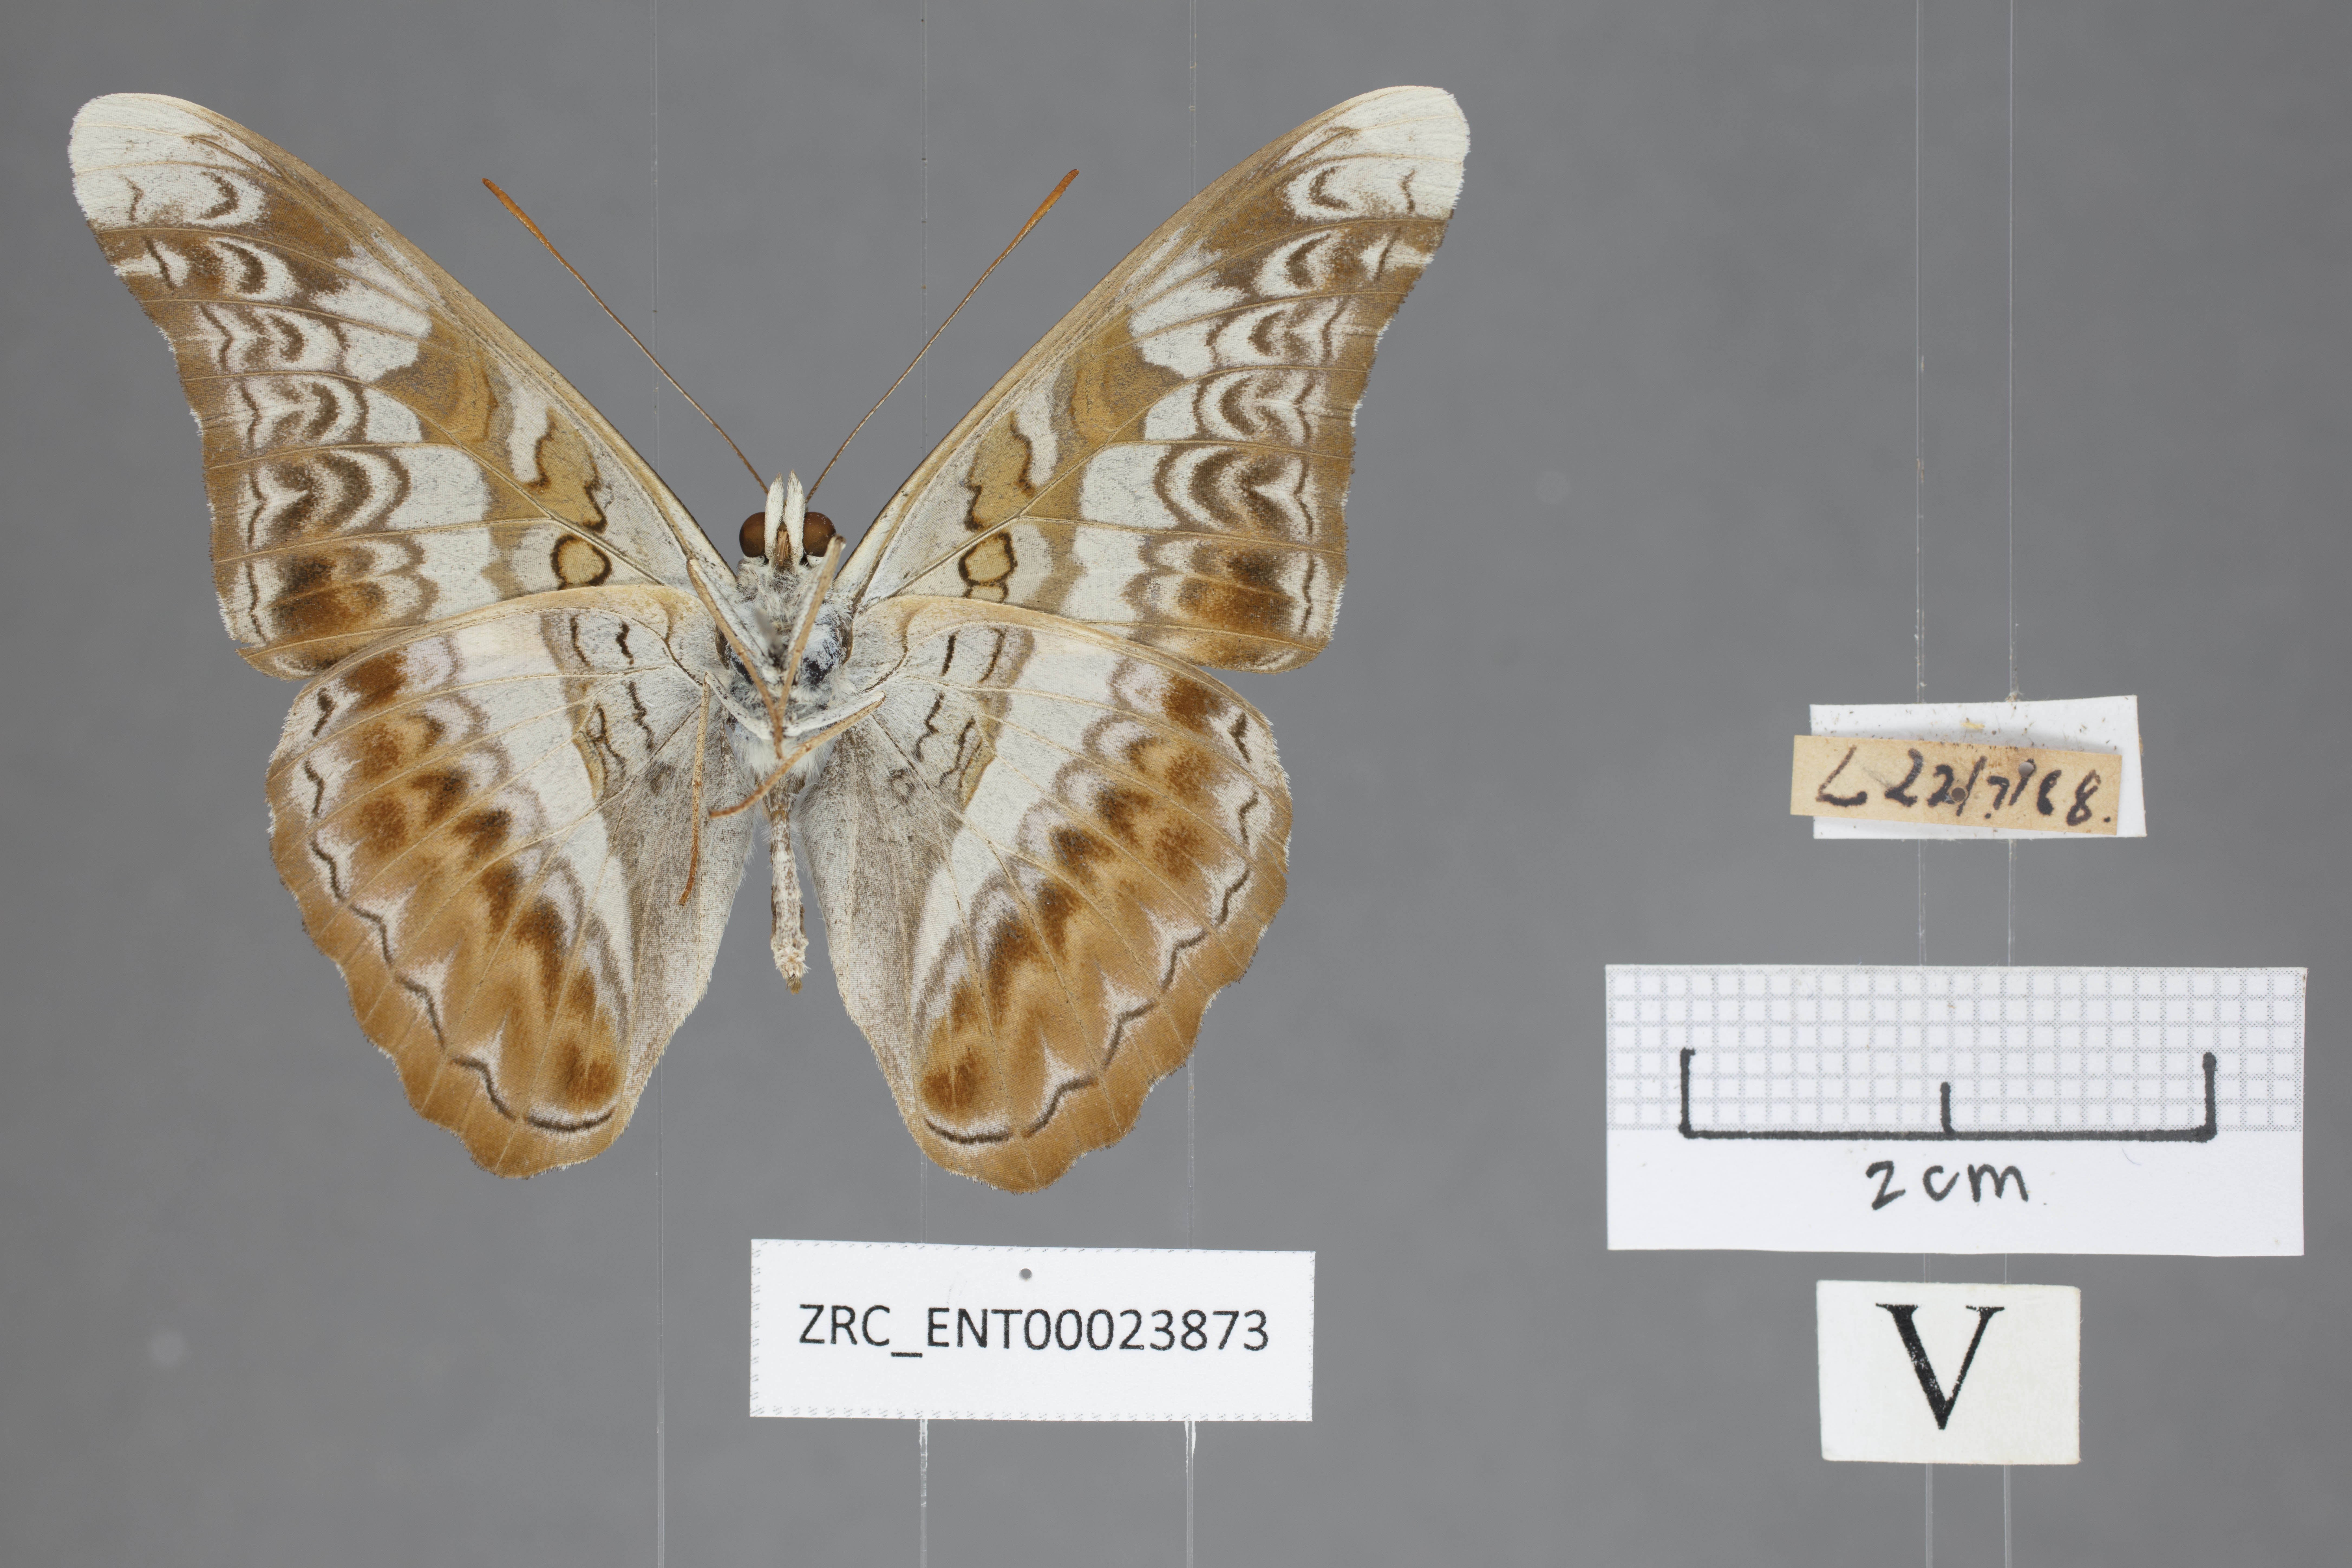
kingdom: Animalia
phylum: Arthropoda
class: Insecta
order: Lepidoptera
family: Nymphalidae
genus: Lebadea
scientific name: Lebadea martha
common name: Knight
